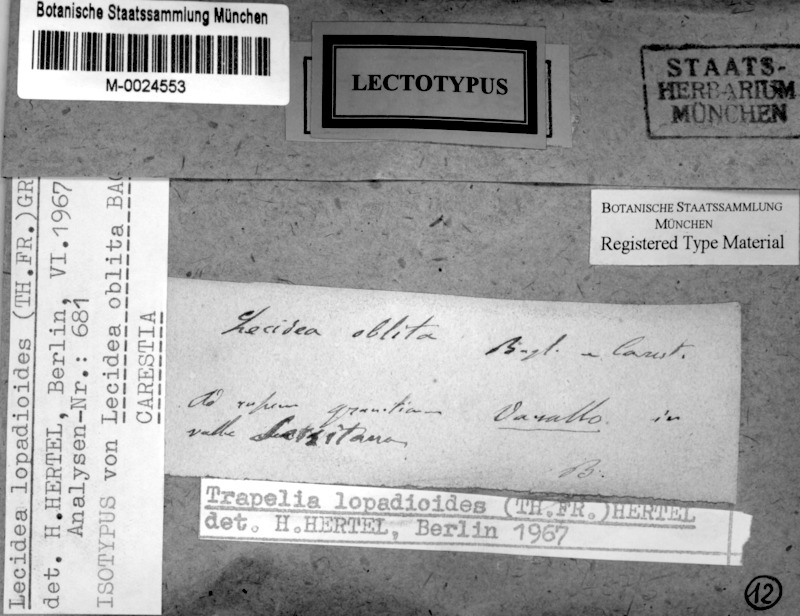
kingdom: Fungi
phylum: Ascomycota
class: Lecanoromycetes
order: Baeomycetales
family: Baeomycetaceae
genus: Ainoa
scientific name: Ainoa mooreana
